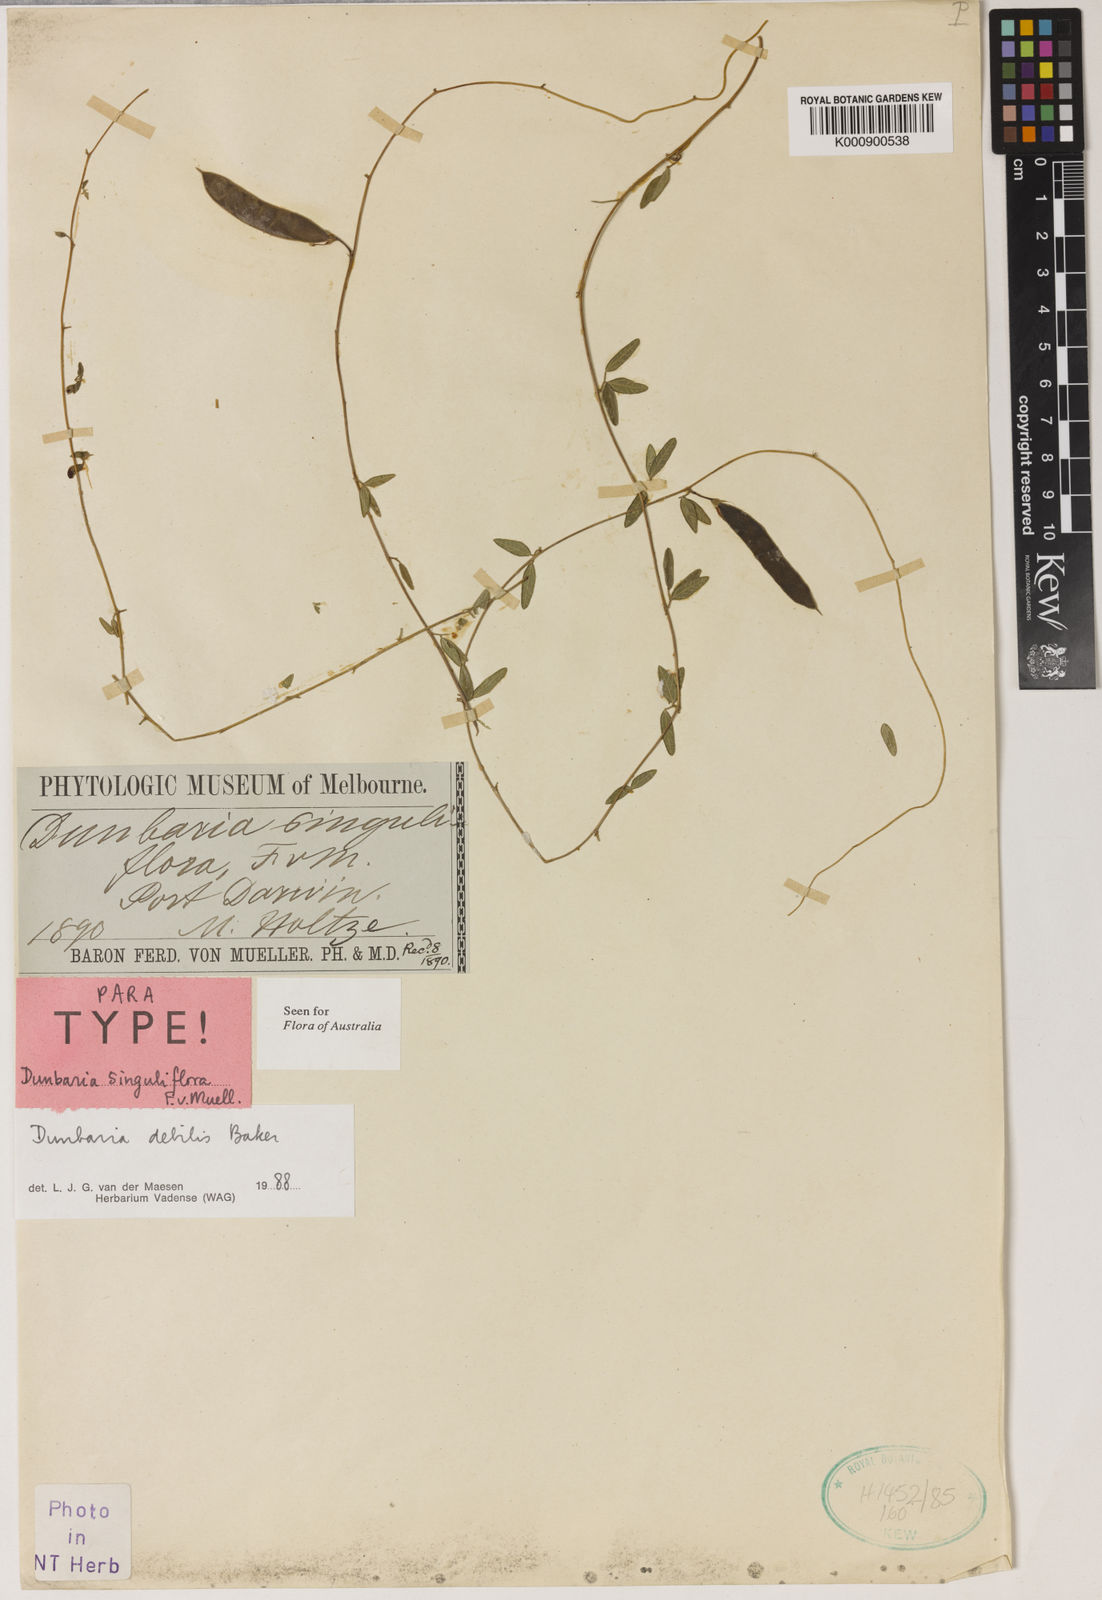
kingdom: Plantae
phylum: Tracheophyta
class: Magnoliopsida
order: Fabales
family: Fabaceae
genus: Dunbaria
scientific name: Dunbaria debilis
